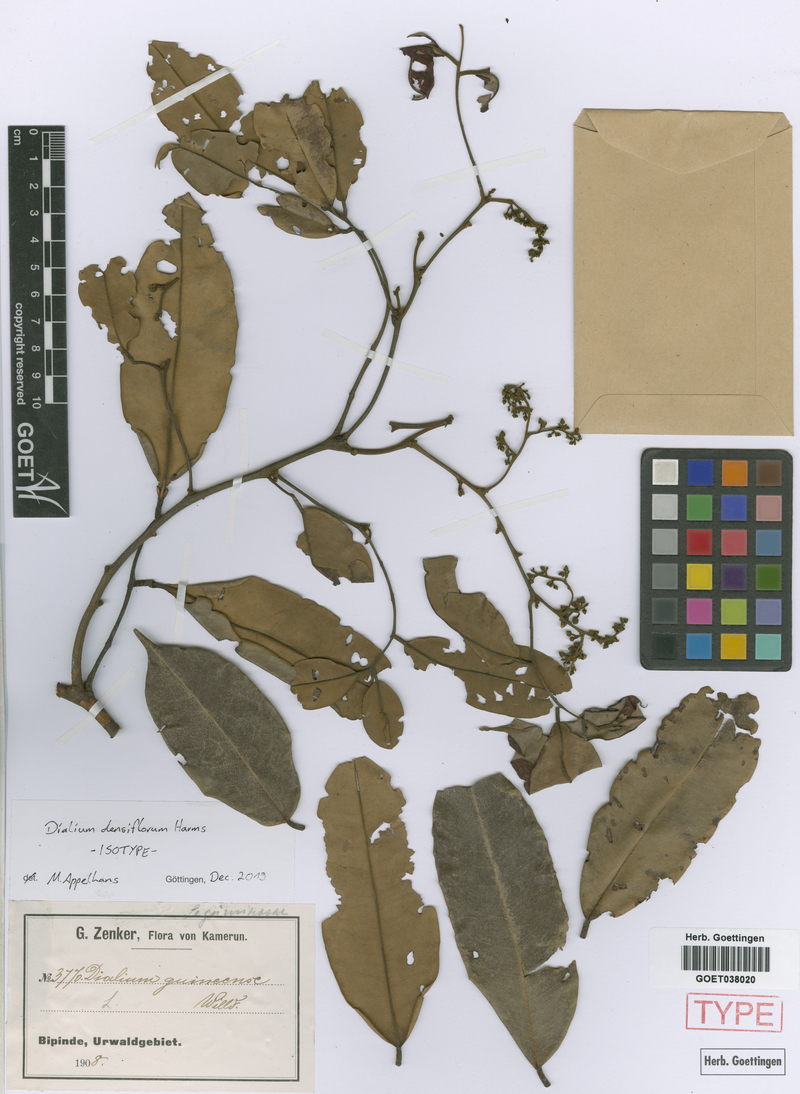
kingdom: Plantae
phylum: Tracheophyta
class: Magnoliopsida
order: Fabales
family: Fabaceae
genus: Dialium
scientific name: Dialium zenkeri
